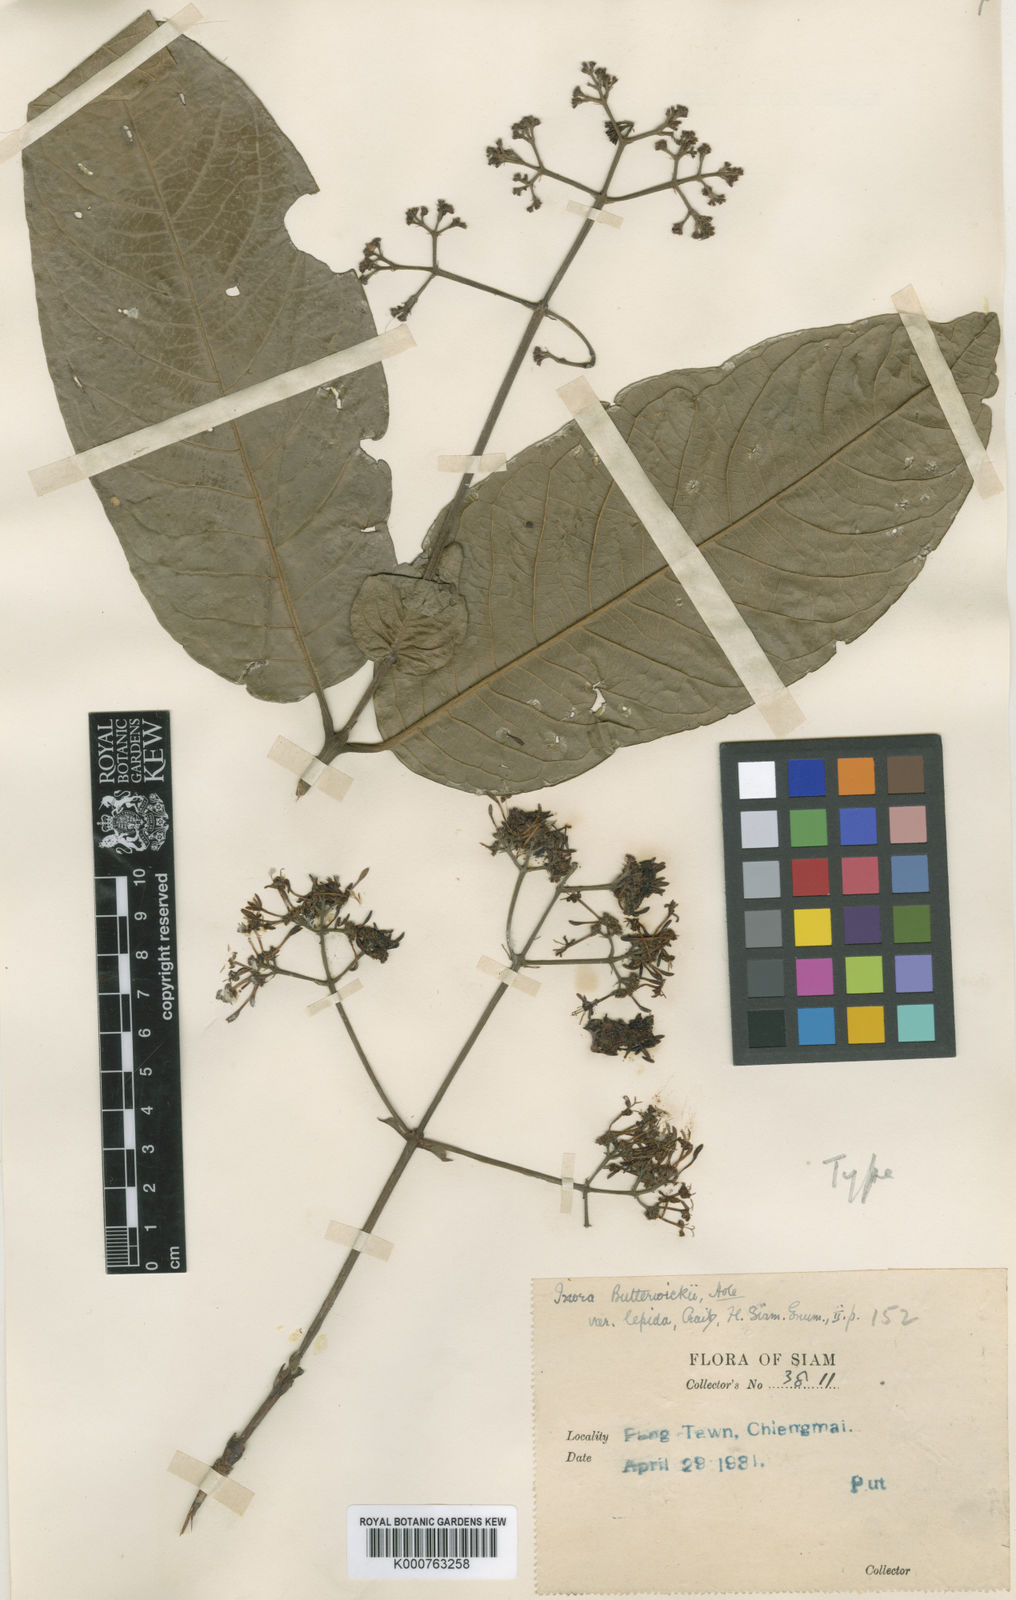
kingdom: Plantae
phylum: Tracheophyta
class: Magnoliopsida
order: Gentianales
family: Rubiaceae
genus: Ixora
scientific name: Ixora butterwickii
